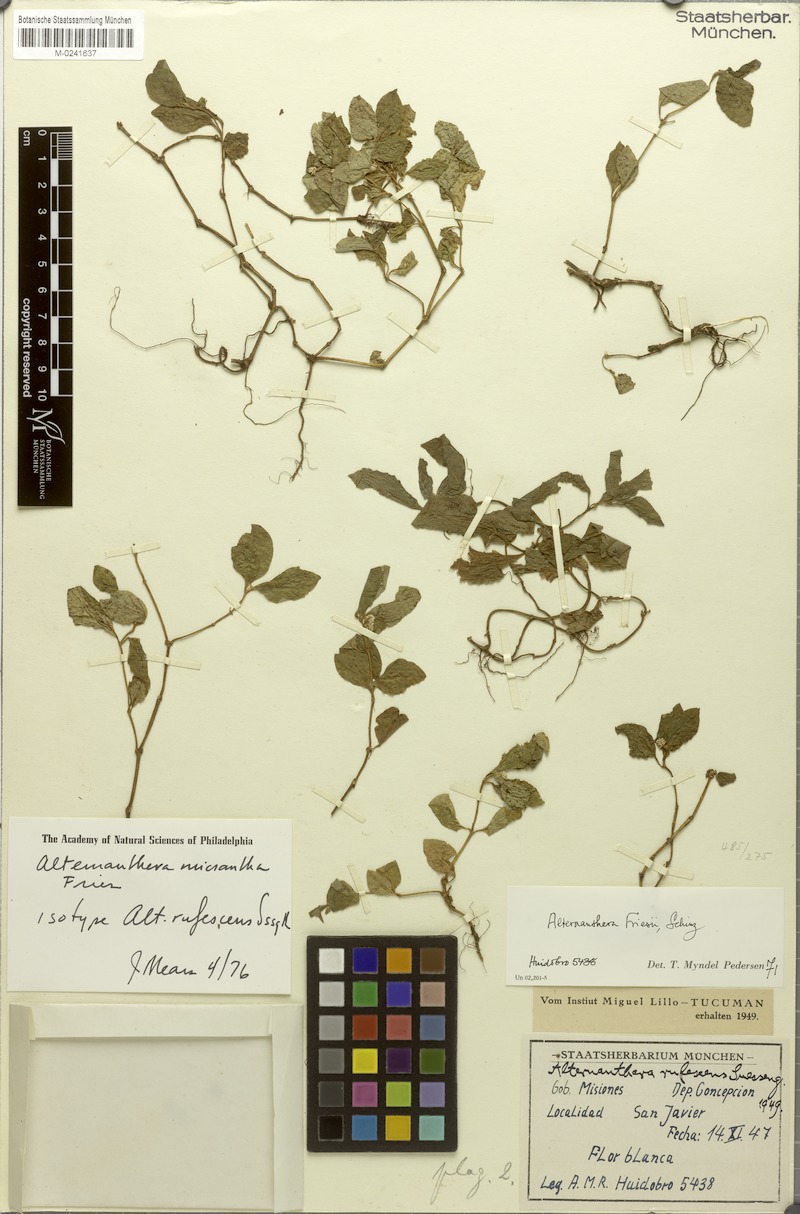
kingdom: Plantae
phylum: Tracheophyta
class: Magnoliopsida
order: Caryophyllales
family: Amaranthaceae
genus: Alternanthera
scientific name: Alternanthera micrantha
